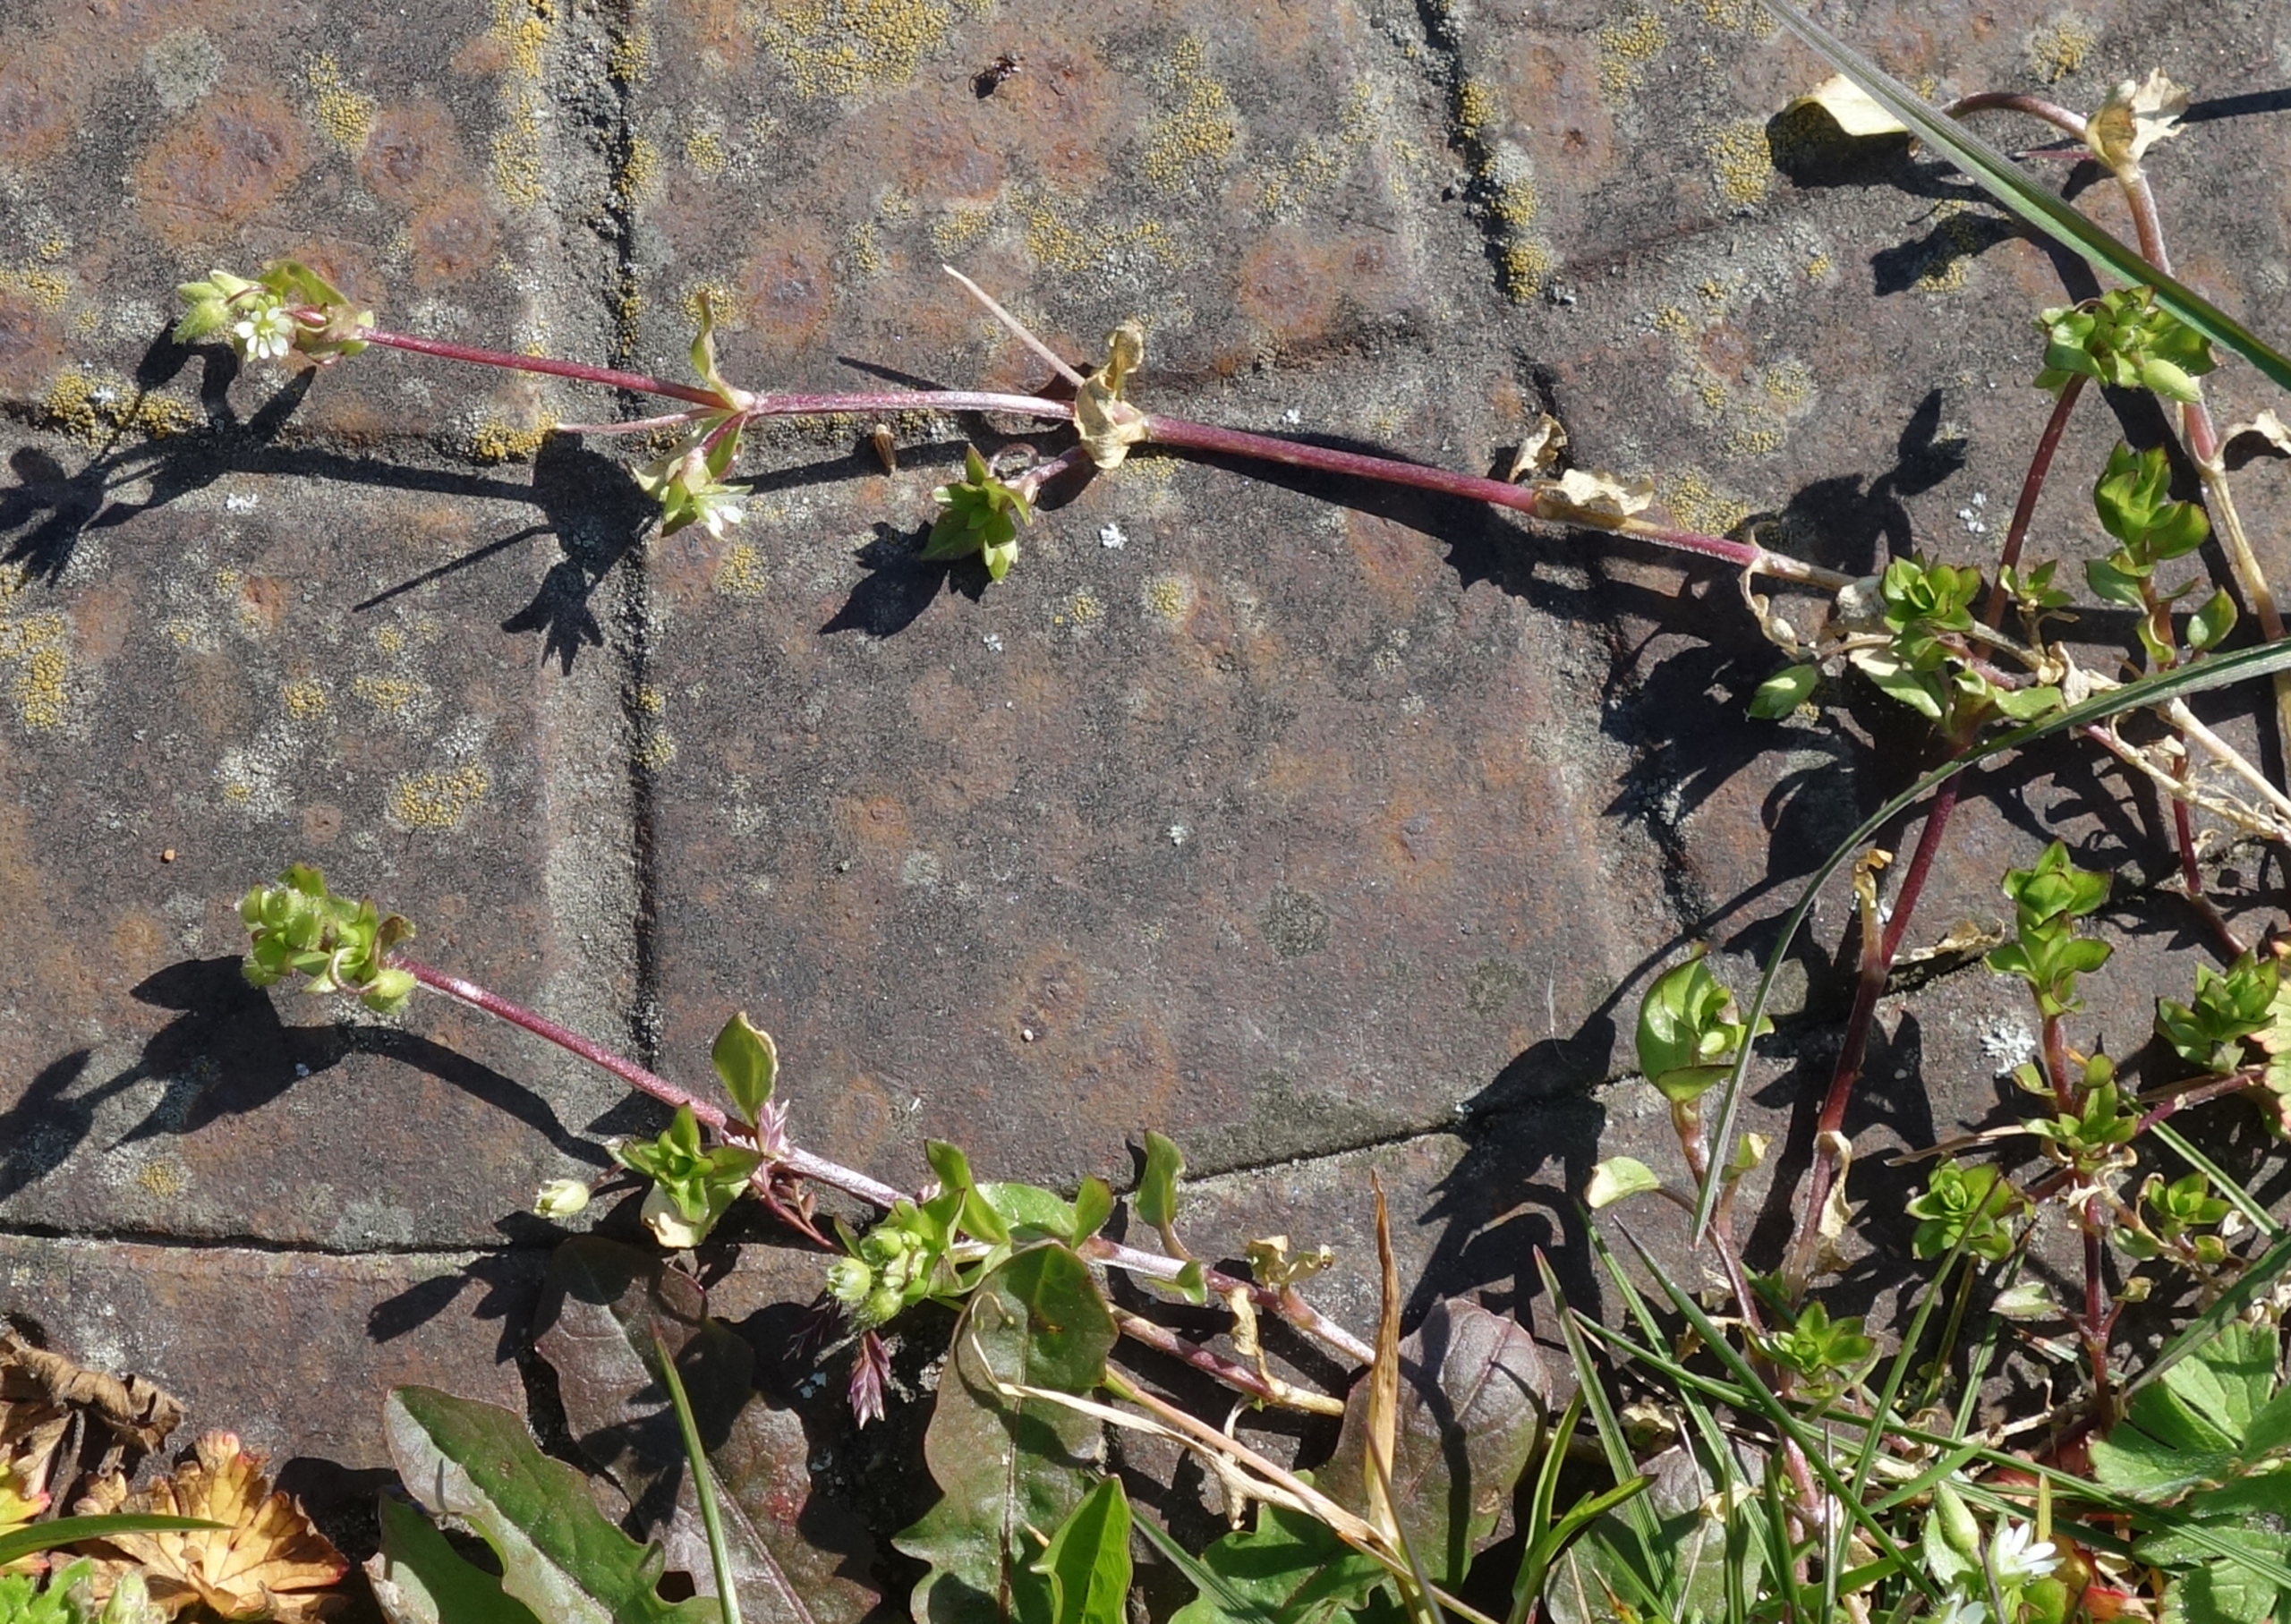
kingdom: Plantae
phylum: Tracheophyta
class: Magnoliopsida
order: Caryophyllales
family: Caryophyllaceae
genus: Stellaria
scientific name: Stellaria media
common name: Almindelig fuglegræs
